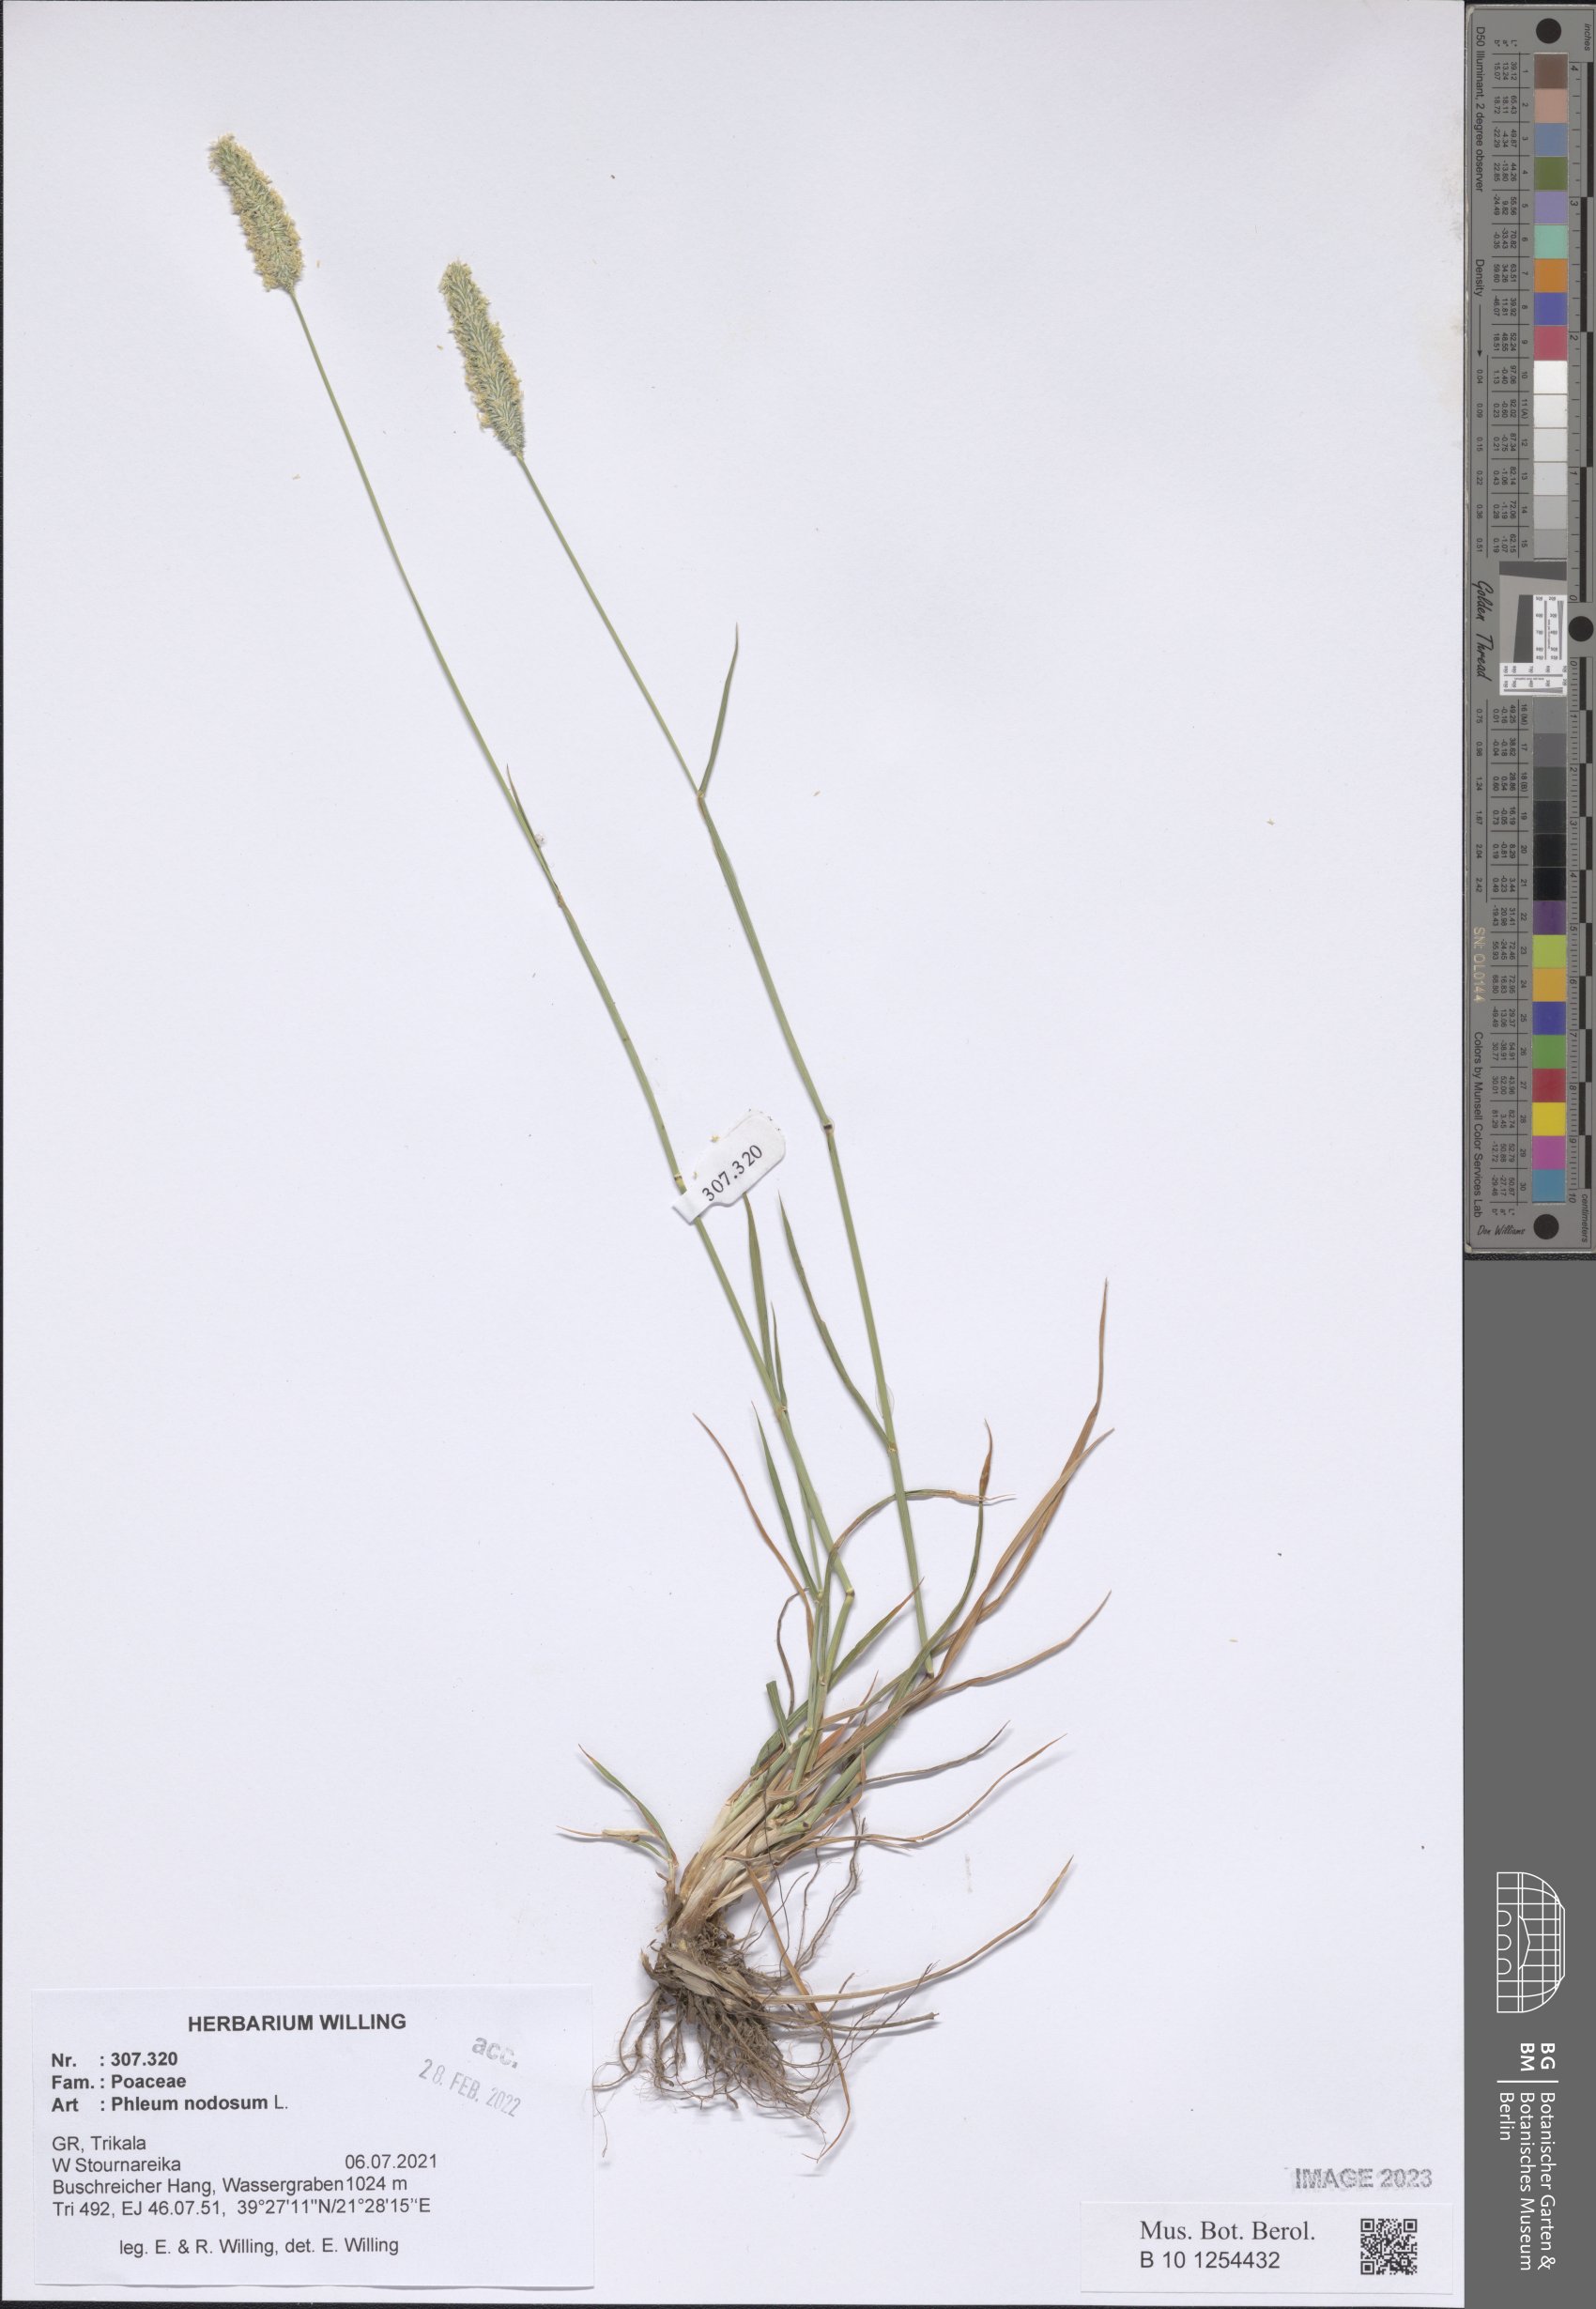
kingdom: Plantae
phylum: Tracheophyta
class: Liliopsida
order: Poales
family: Poaceae
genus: Phleum
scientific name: Phleum pratense
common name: Timothy grass
